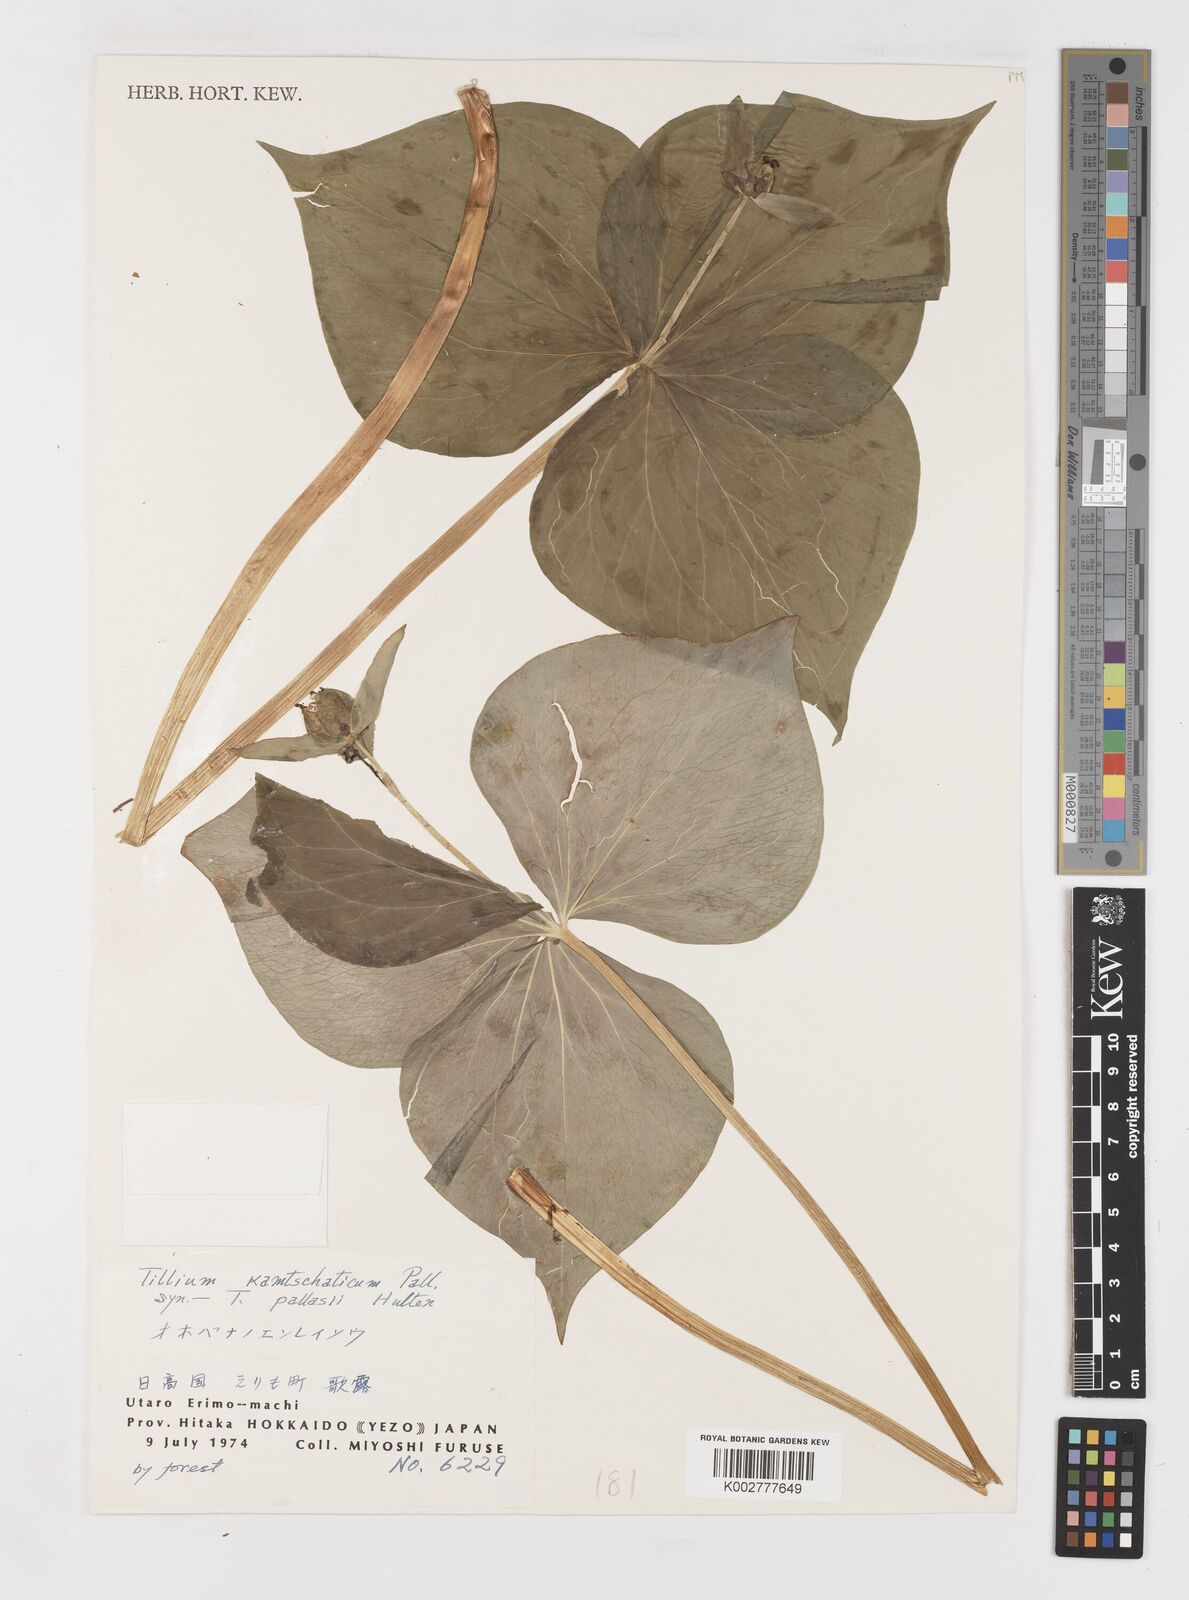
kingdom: Plantae
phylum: Tracheophyta
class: Liliopsida
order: Liliales
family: Melanthiaceae
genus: Trillium
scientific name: Trillium camschatcense
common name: Kamchatka trillium
